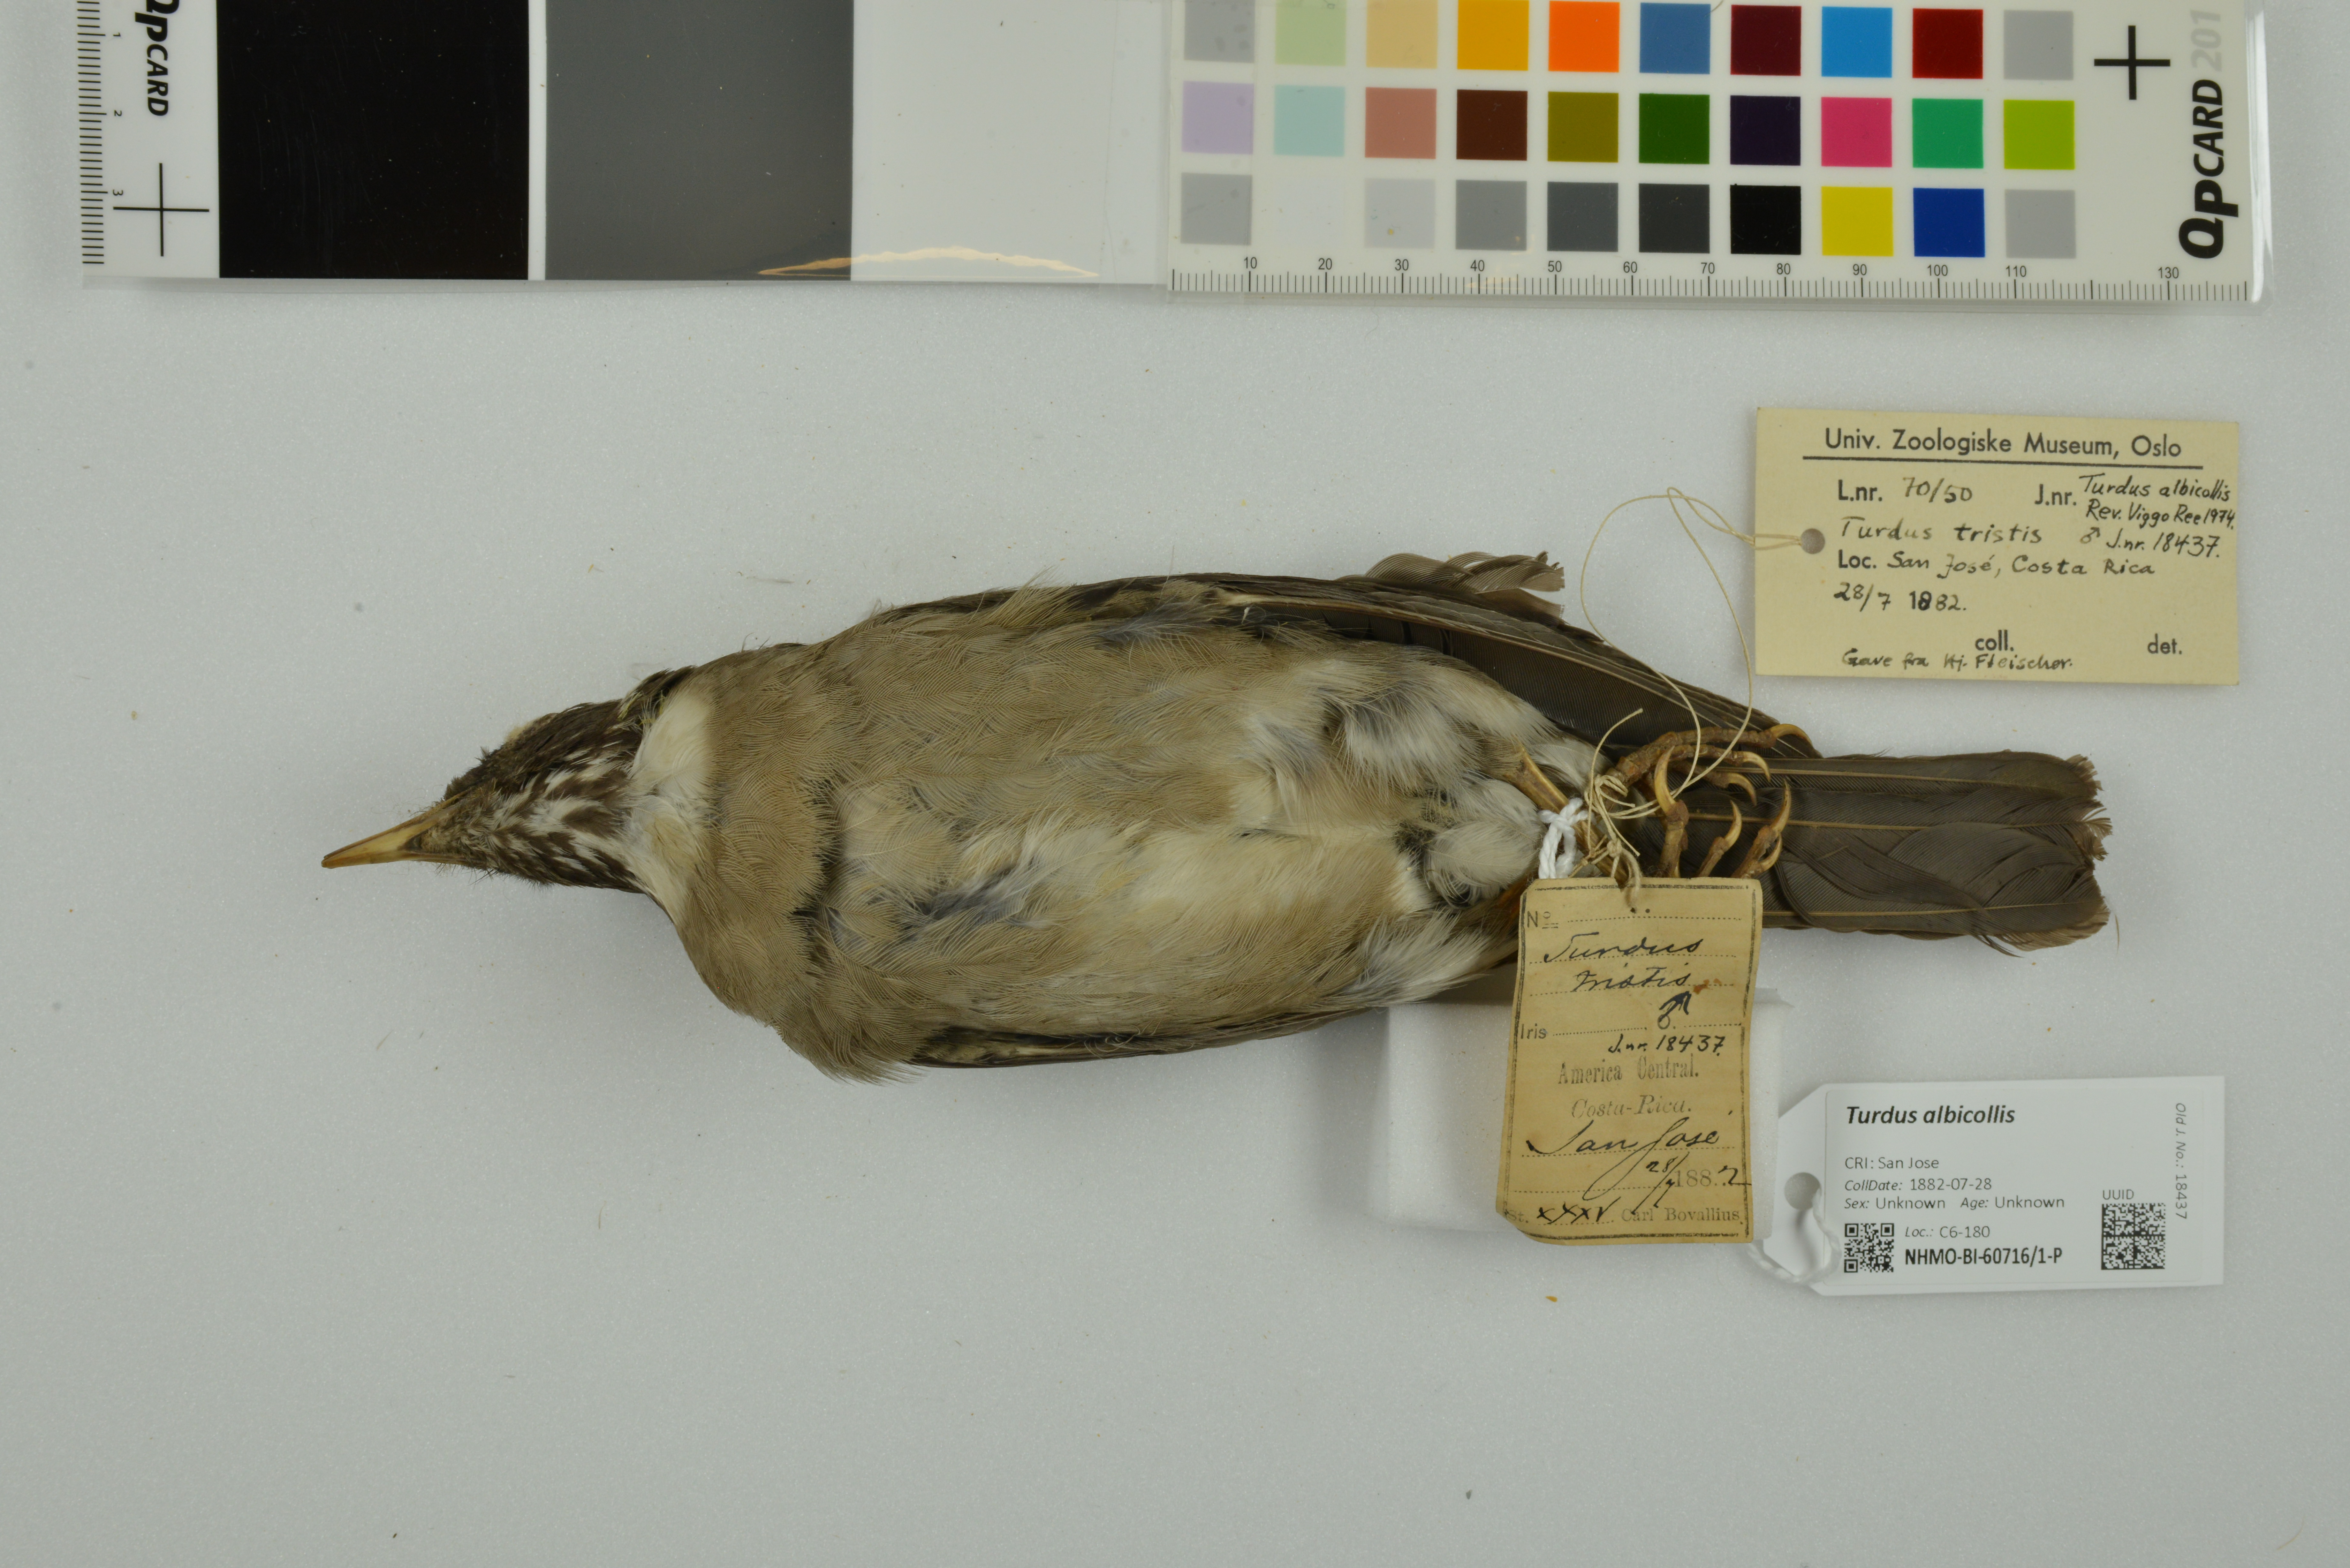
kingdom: Animalia
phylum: Chordata
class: Aves
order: Passeriformes
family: Turdidae
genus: Turdus
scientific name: Turdus albicollis
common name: White-necked thrush
